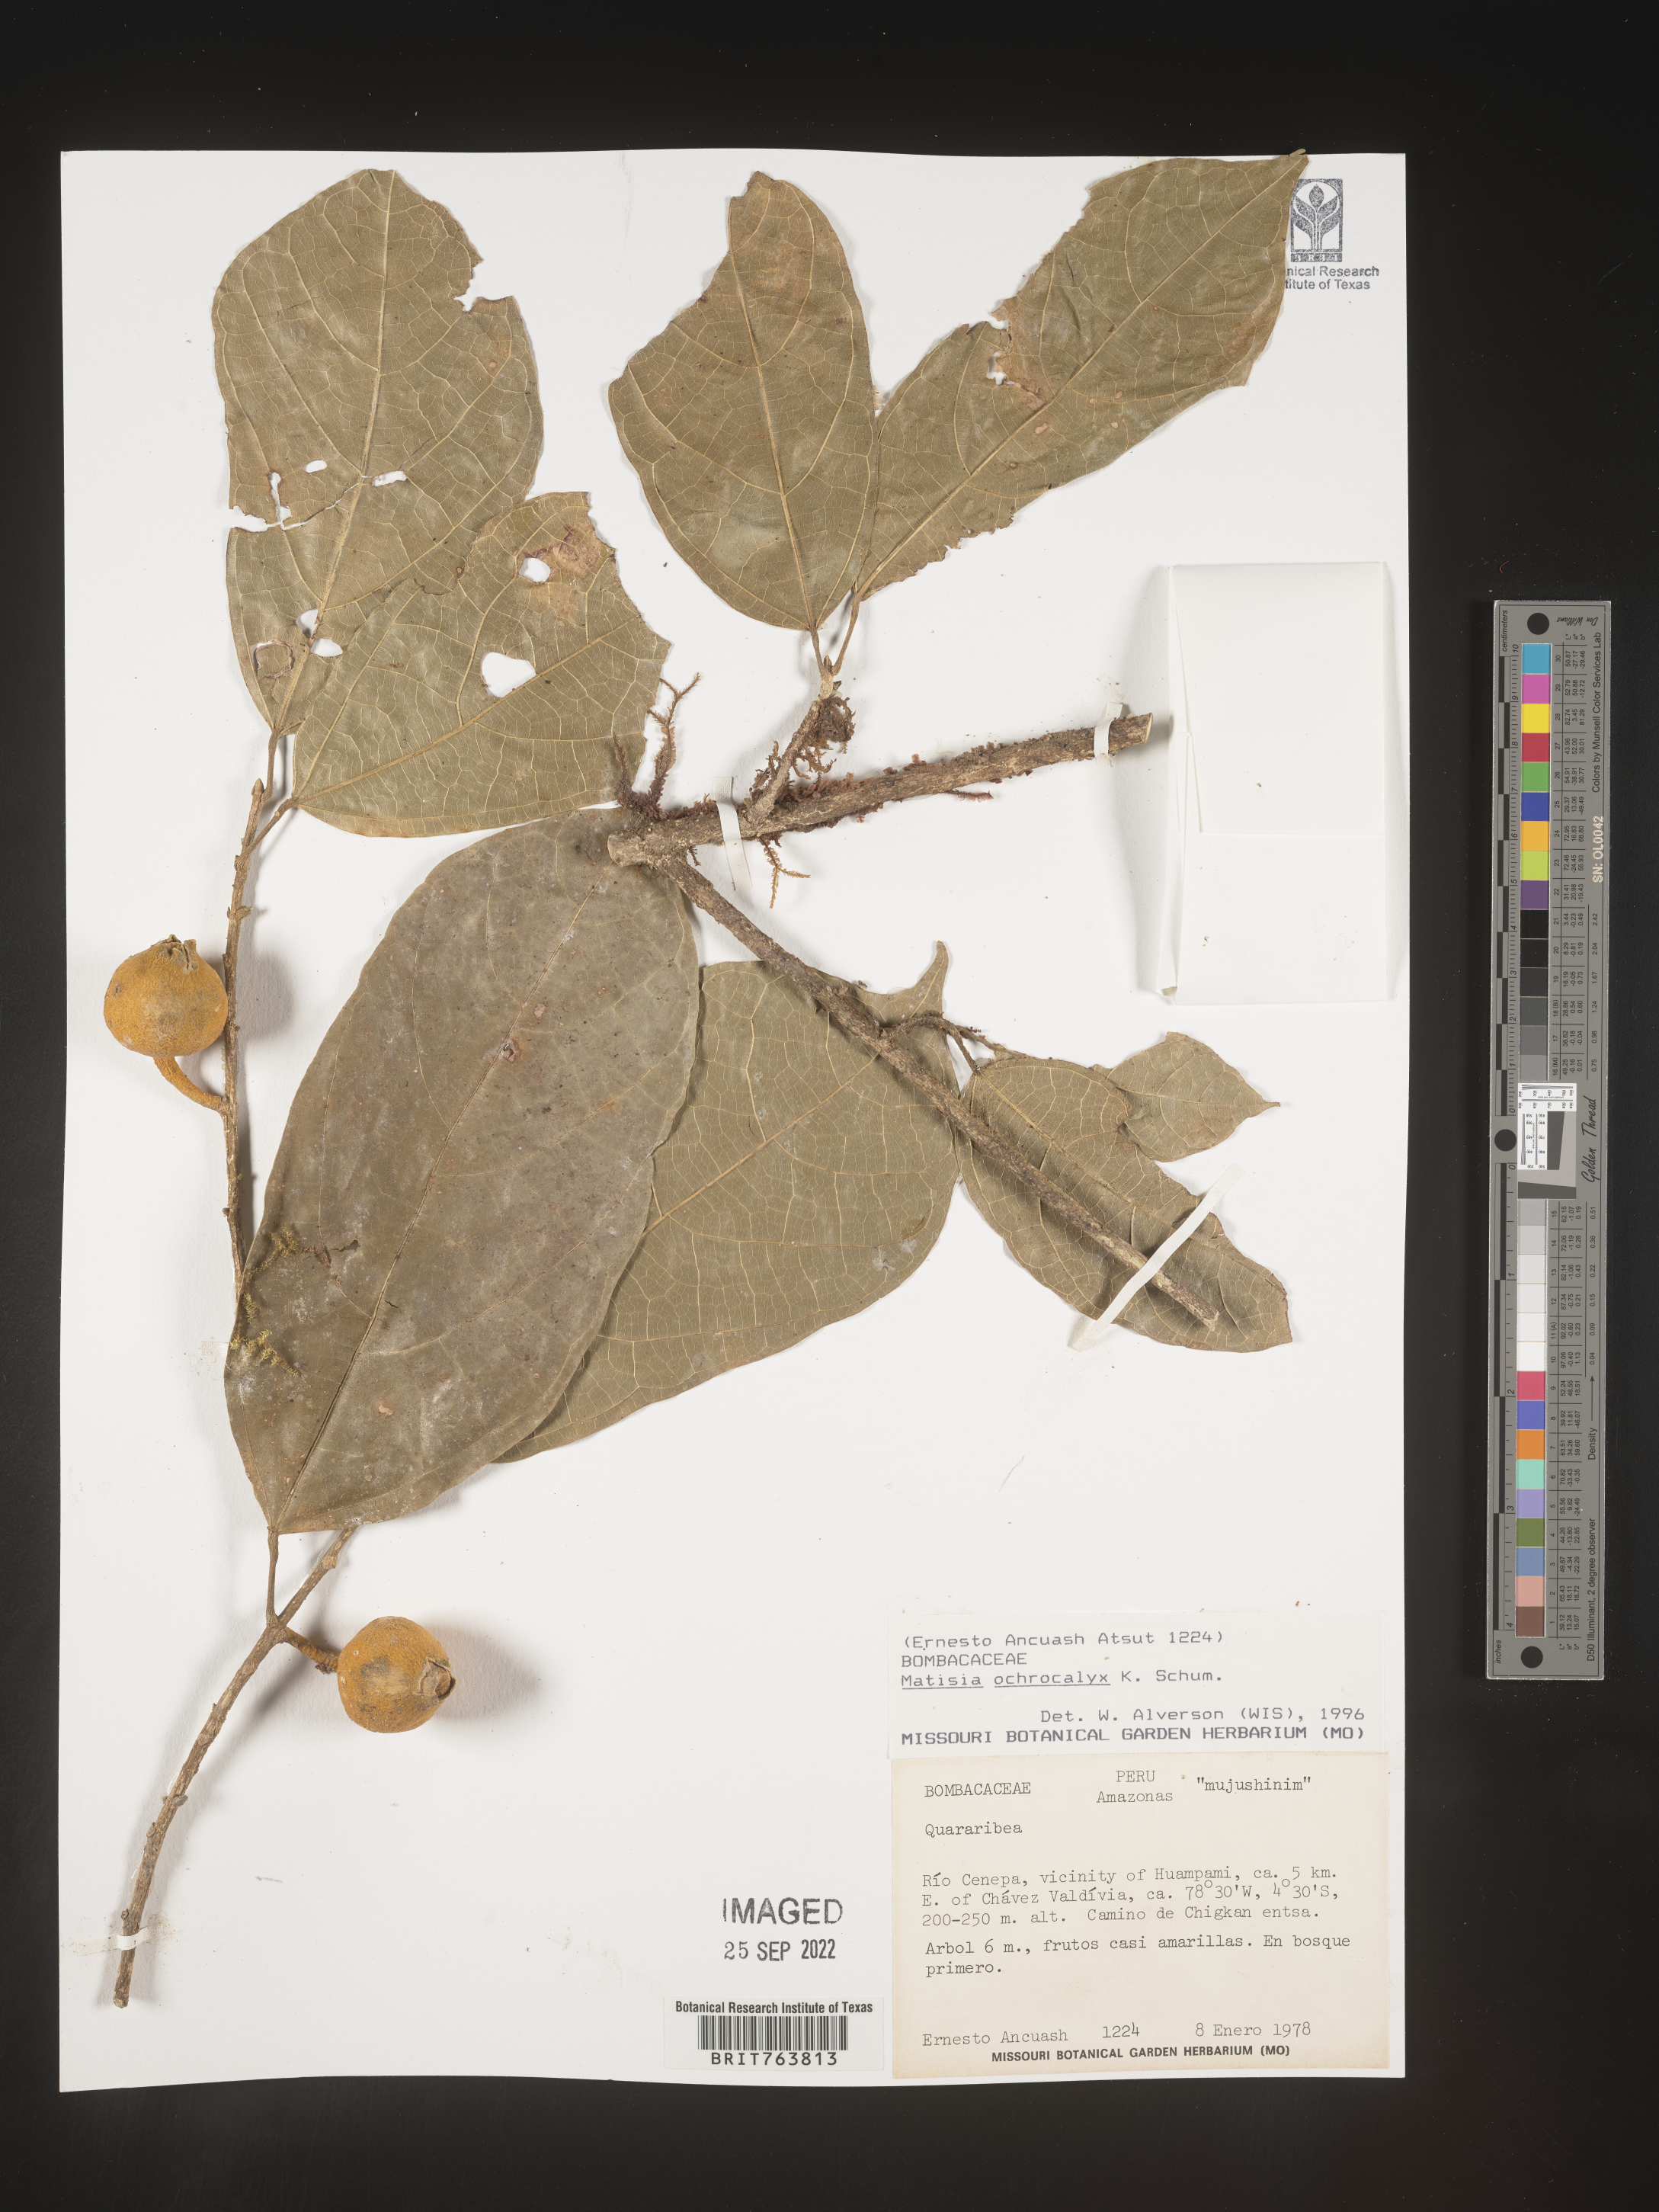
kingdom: Plantae
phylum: Tracheophyta
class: Magnoliopsida
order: Malvales
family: Malvaceae
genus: Matisia
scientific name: Matisia
